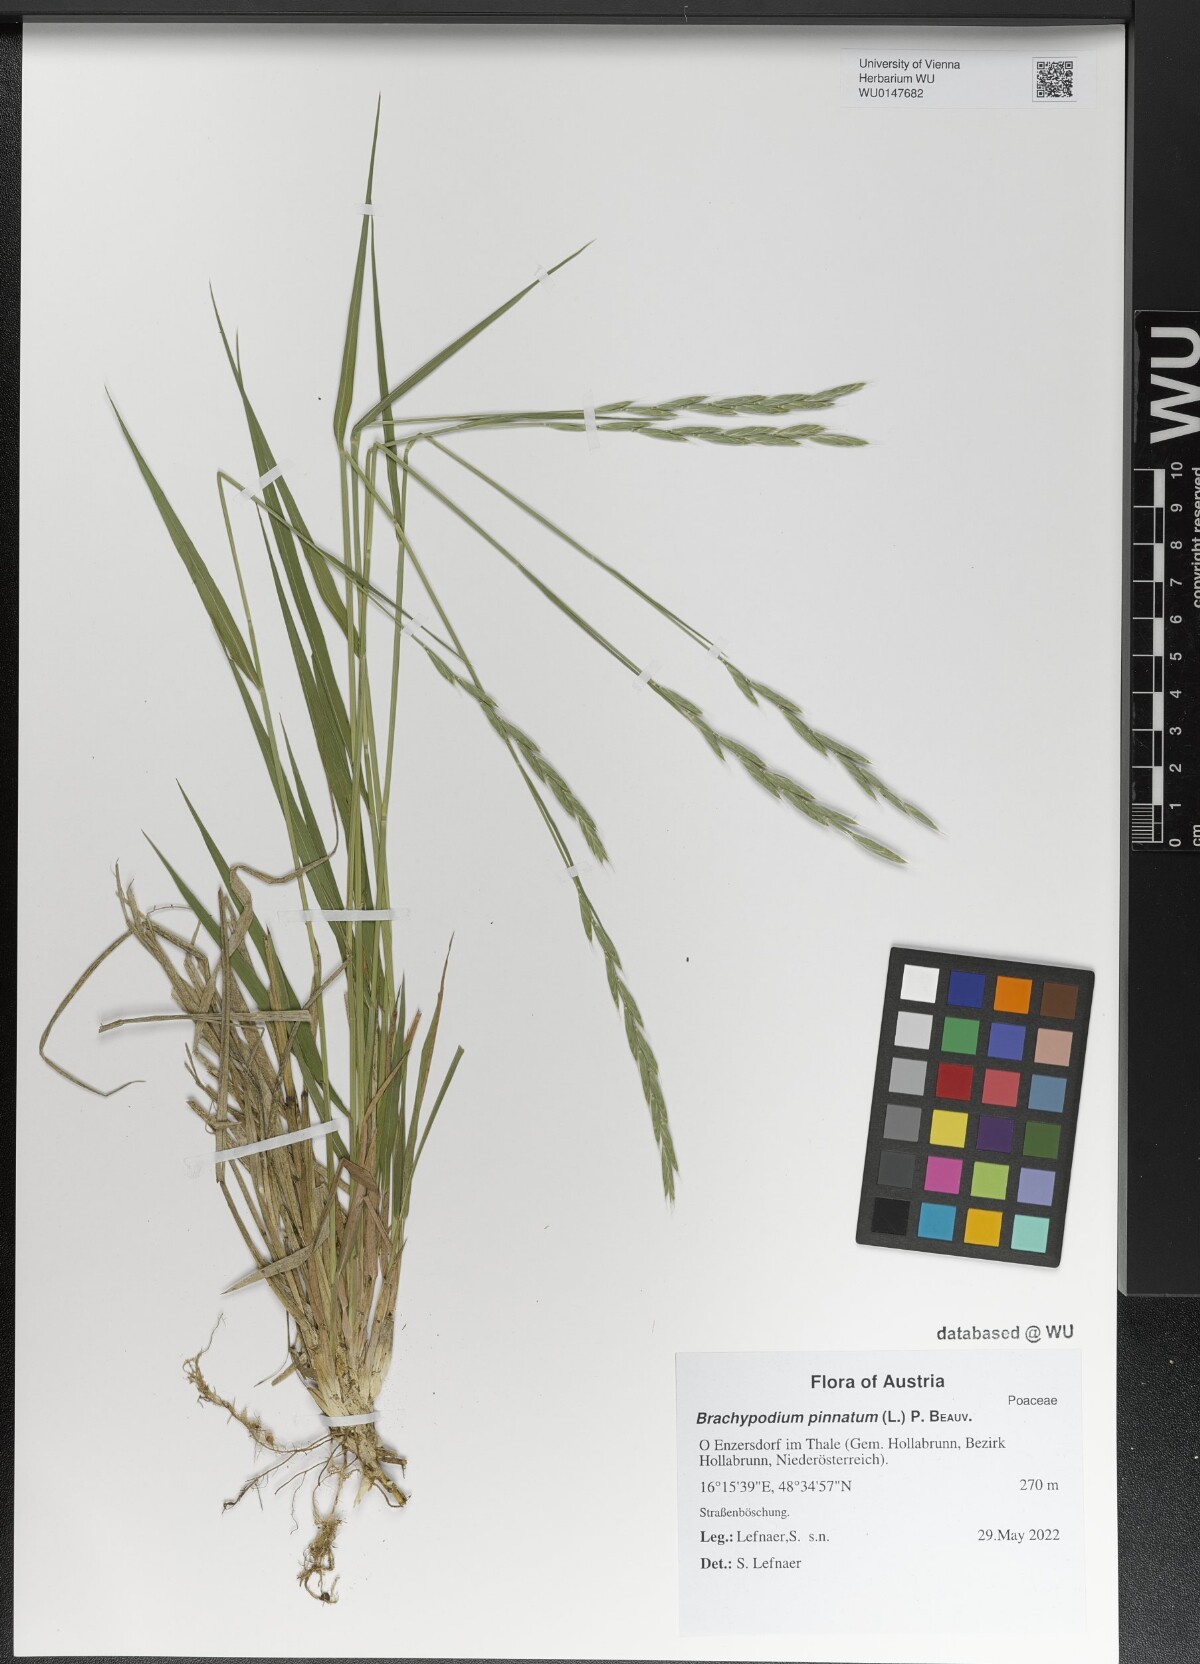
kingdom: Plantae
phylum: Tracheophyta
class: Liliopsida
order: Poales
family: Poaceae
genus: Brachypodium
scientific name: Brachypodium pinnatum
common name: Tor grass
